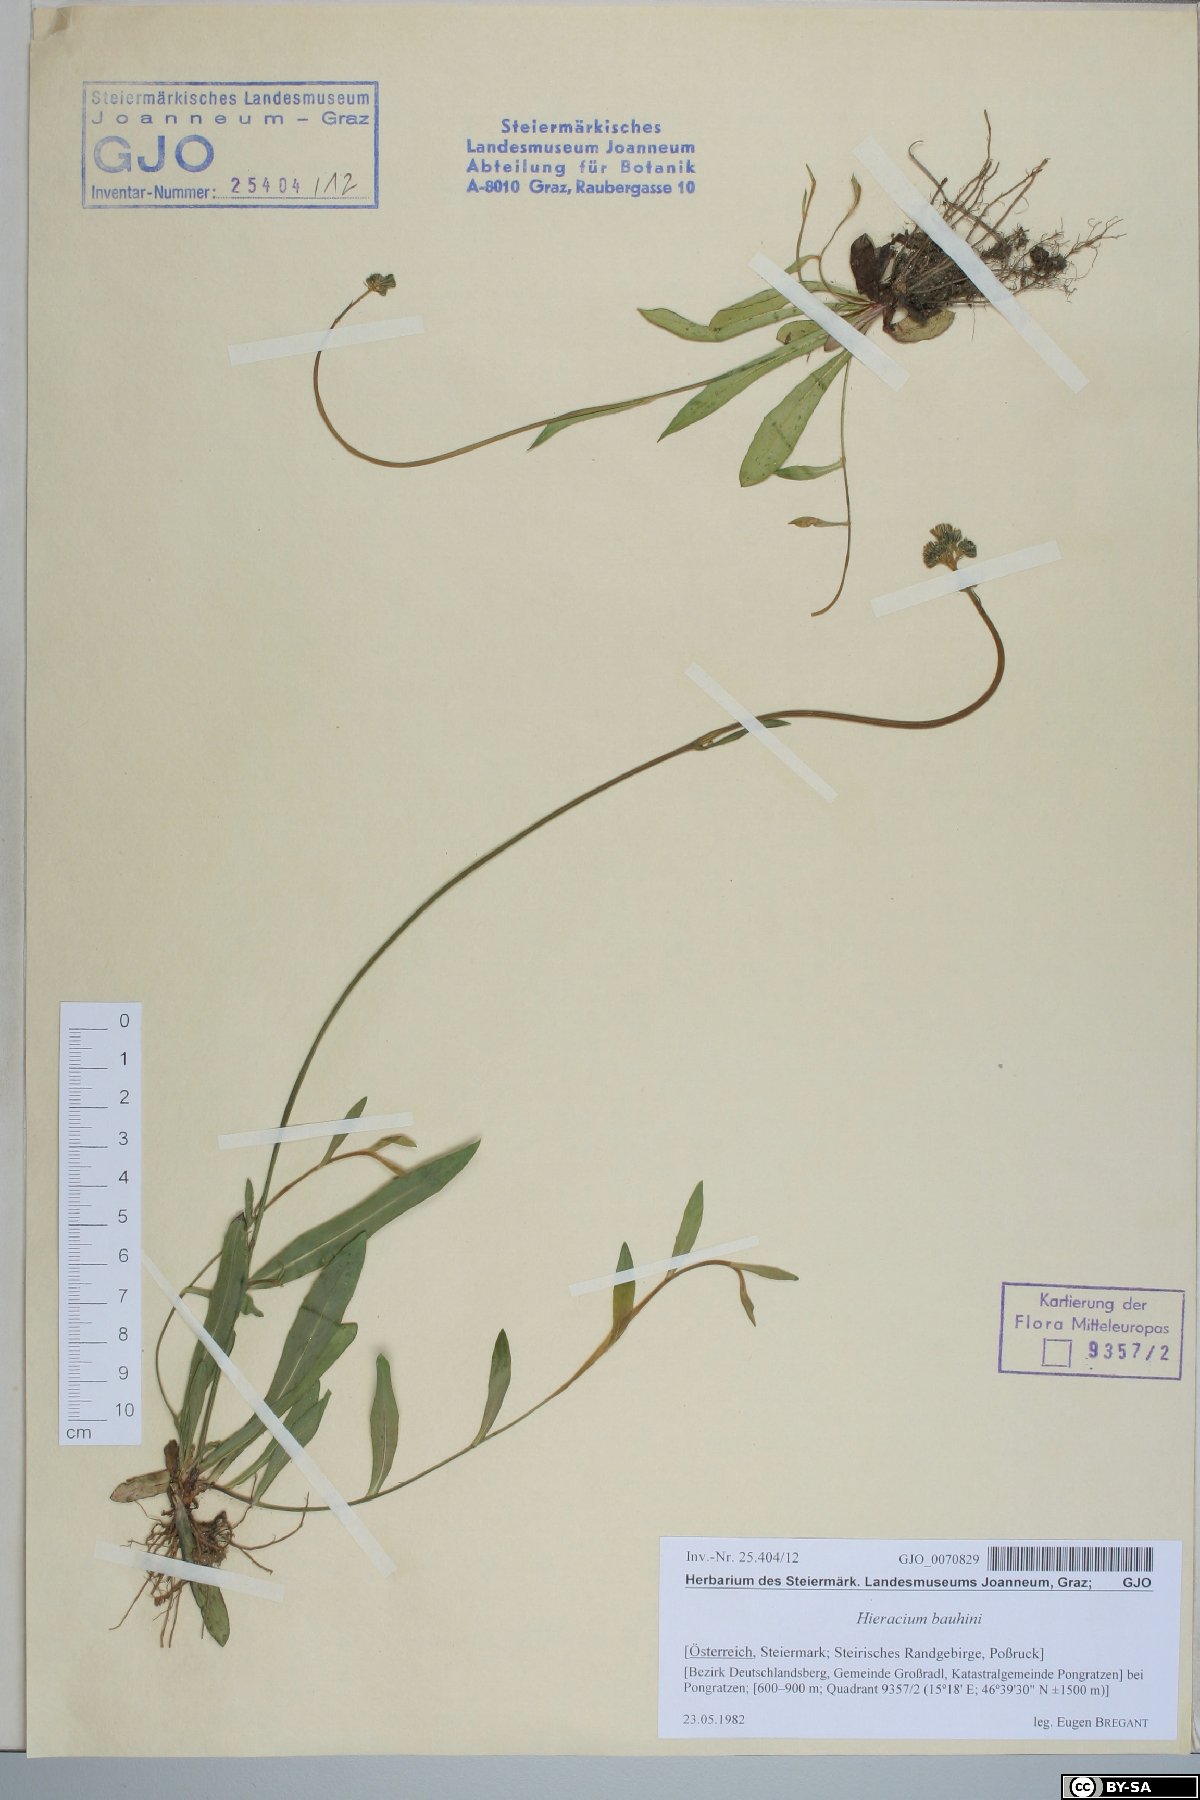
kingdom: Plantae
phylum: Tracheophyta
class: Magnoliopsida
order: Asterales
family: Asteraceae
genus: Pilosella
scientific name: Pilosella bauhini
